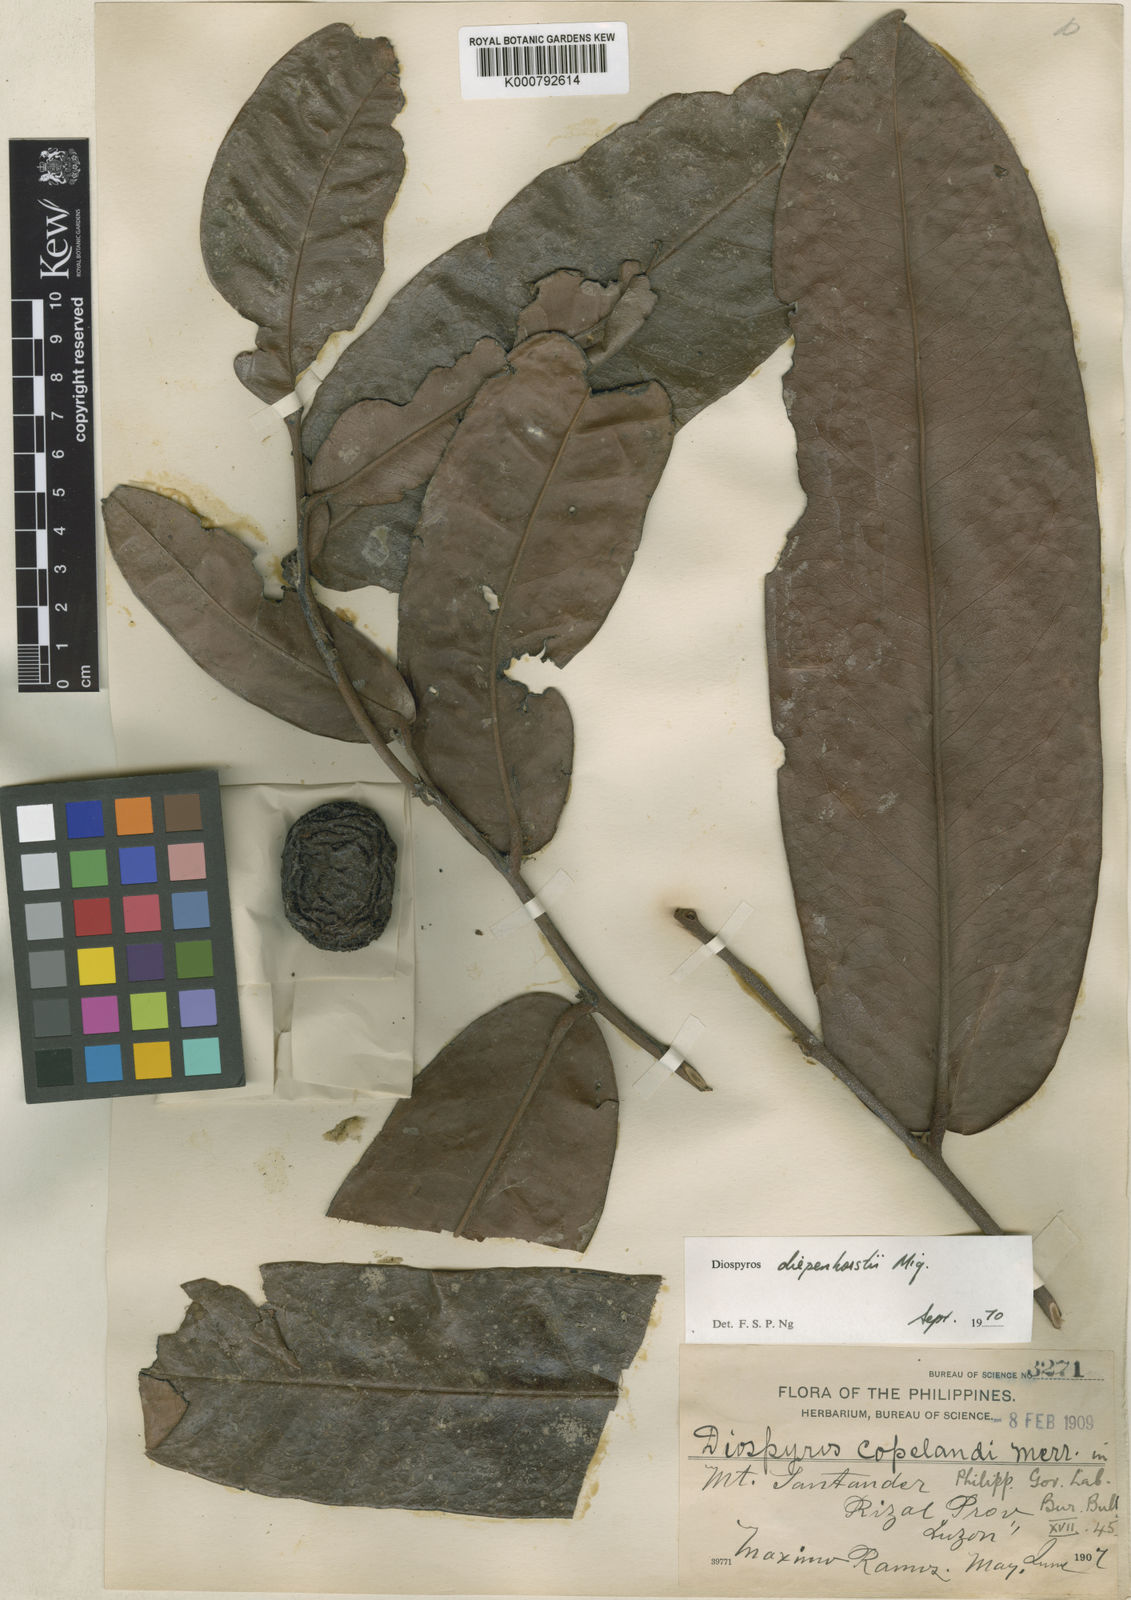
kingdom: Plantae
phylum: Tracheophyta
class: Magnoliopsida
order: Ericales
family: Ebenaceae
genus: Diospyros
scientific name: Diospyros diepenhorstii
